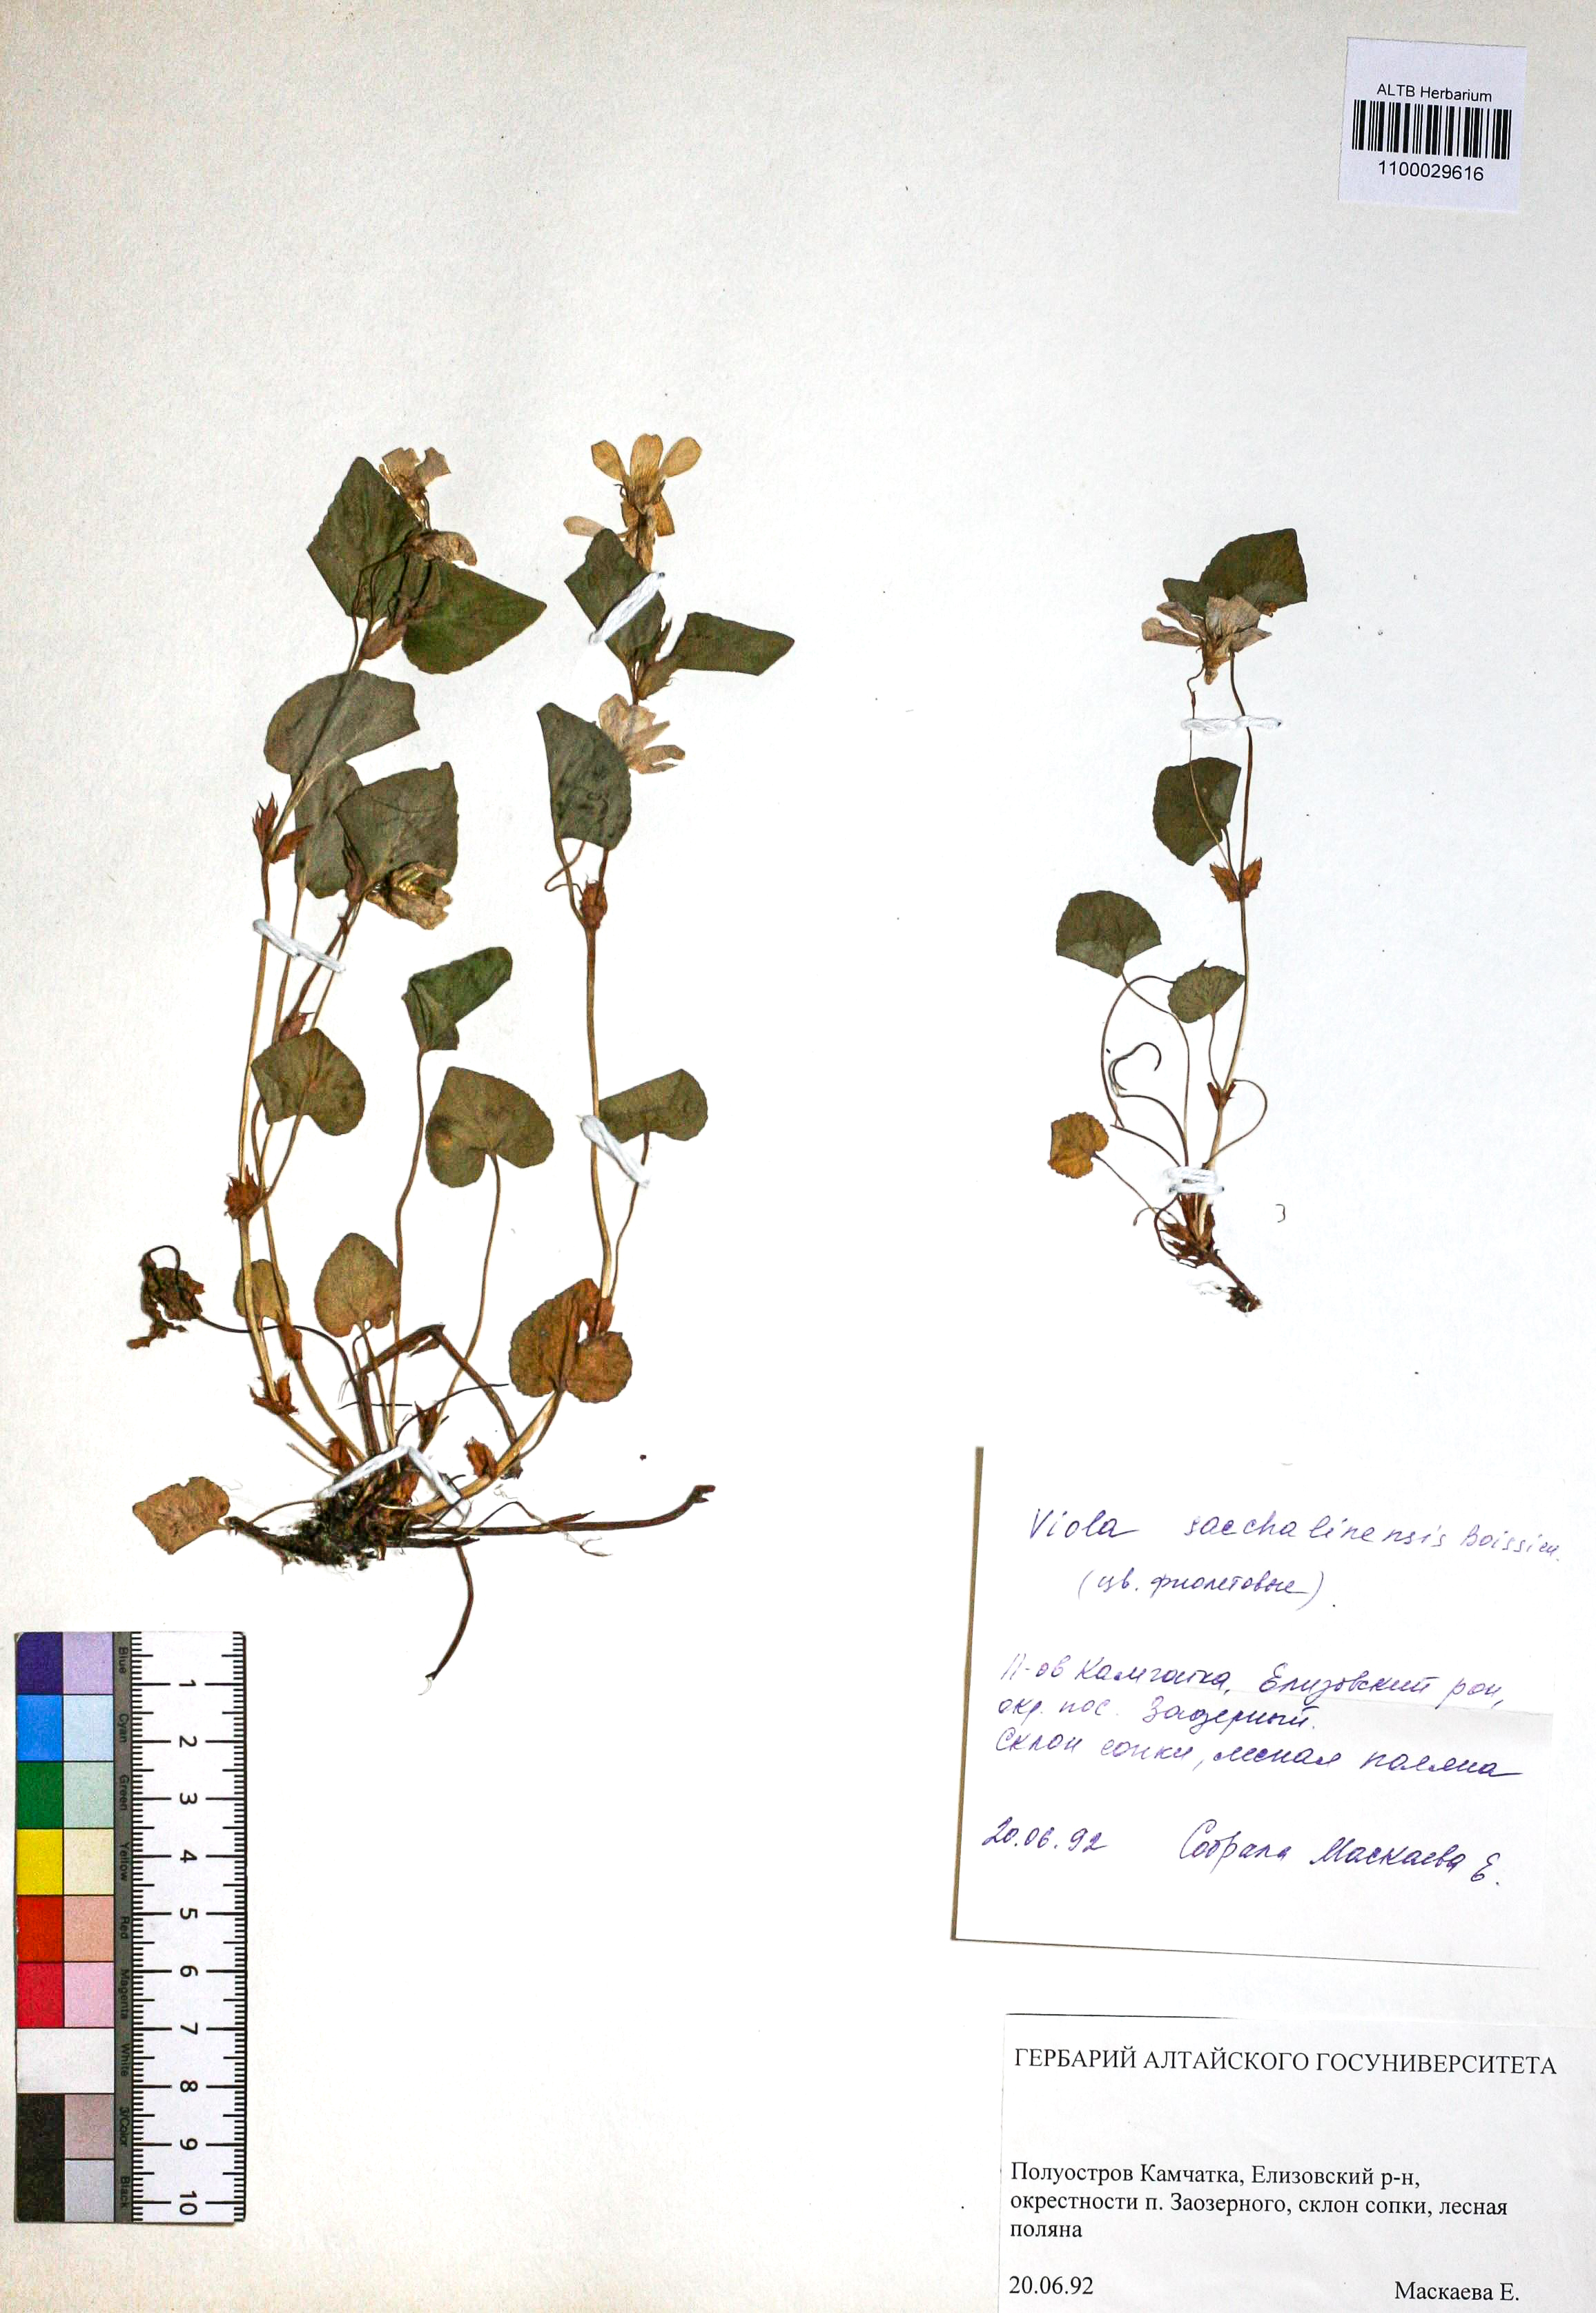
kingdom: Plantae
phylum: Tracheophyta
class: Magnoliopsida
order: Malpighiales
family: Violaceae
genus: Viola
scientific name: Viola sacchalinensis
